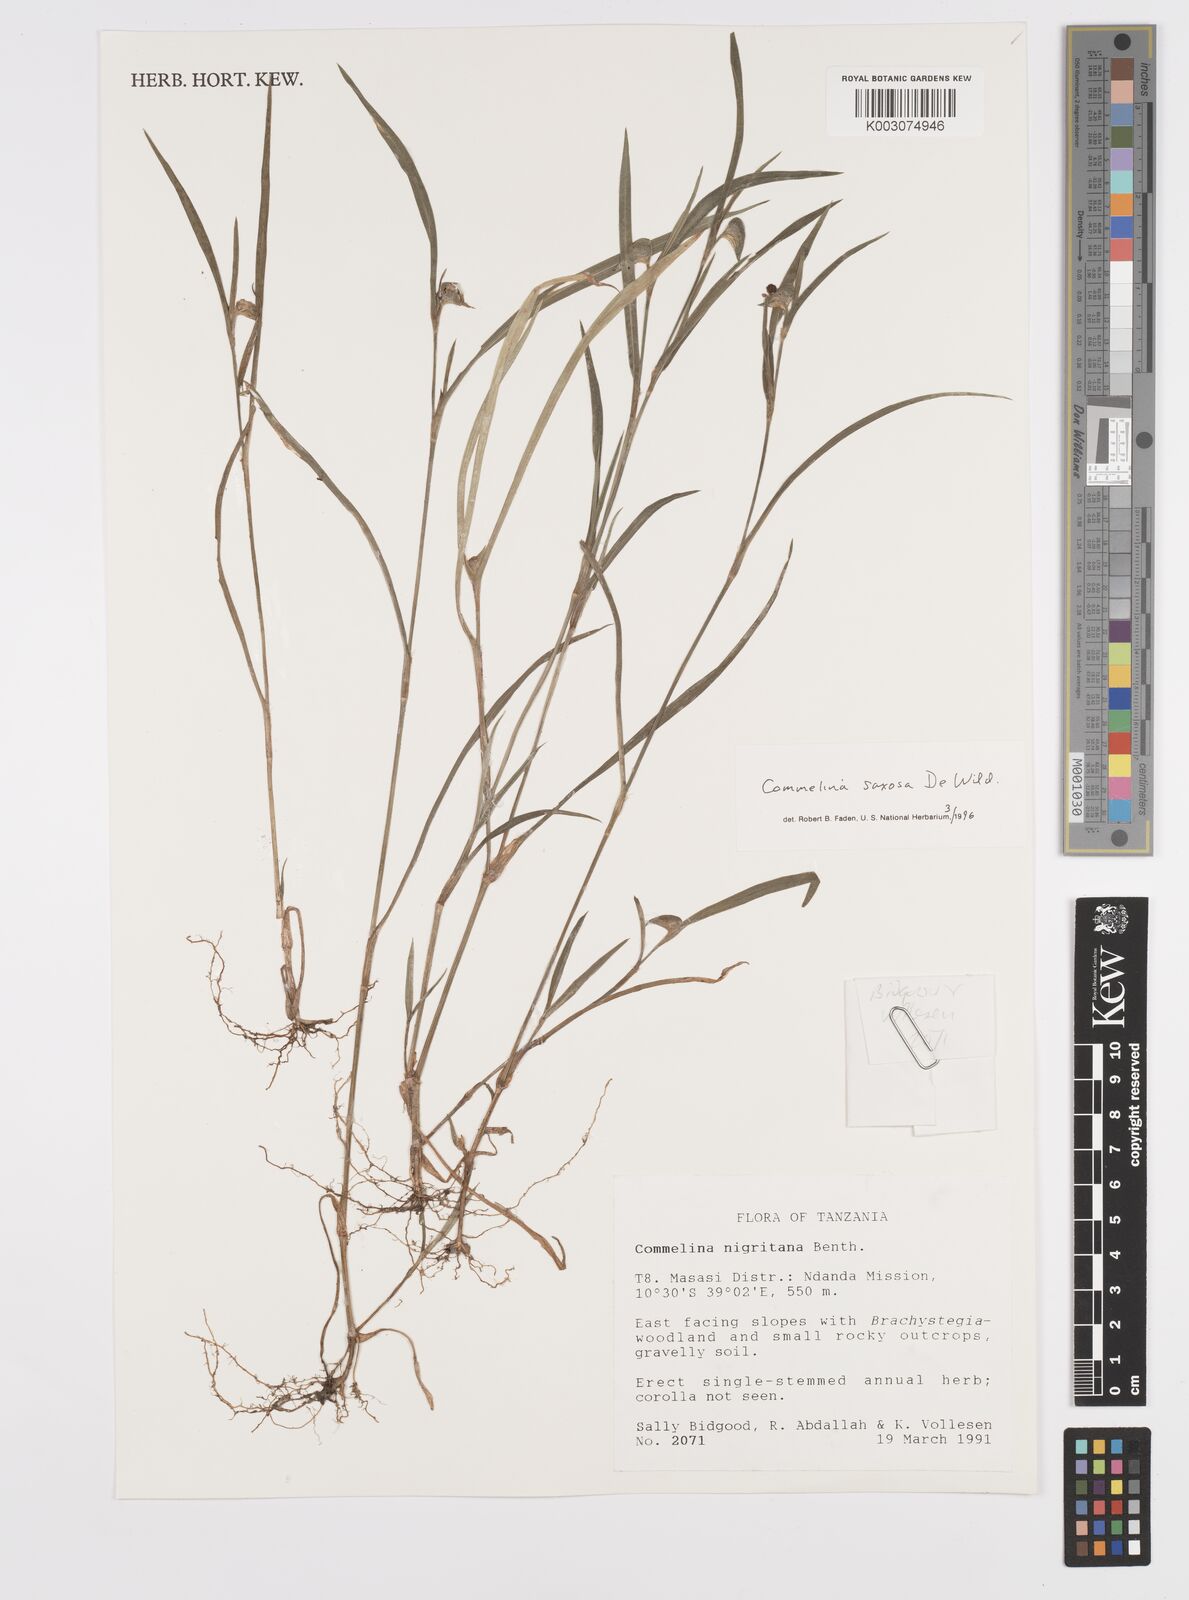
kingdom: Plantae
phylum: Tracheophyta
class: Liliopsida
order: Commelinales
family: Commelinaceae
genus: Commelina
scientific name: Commelina saxosa
